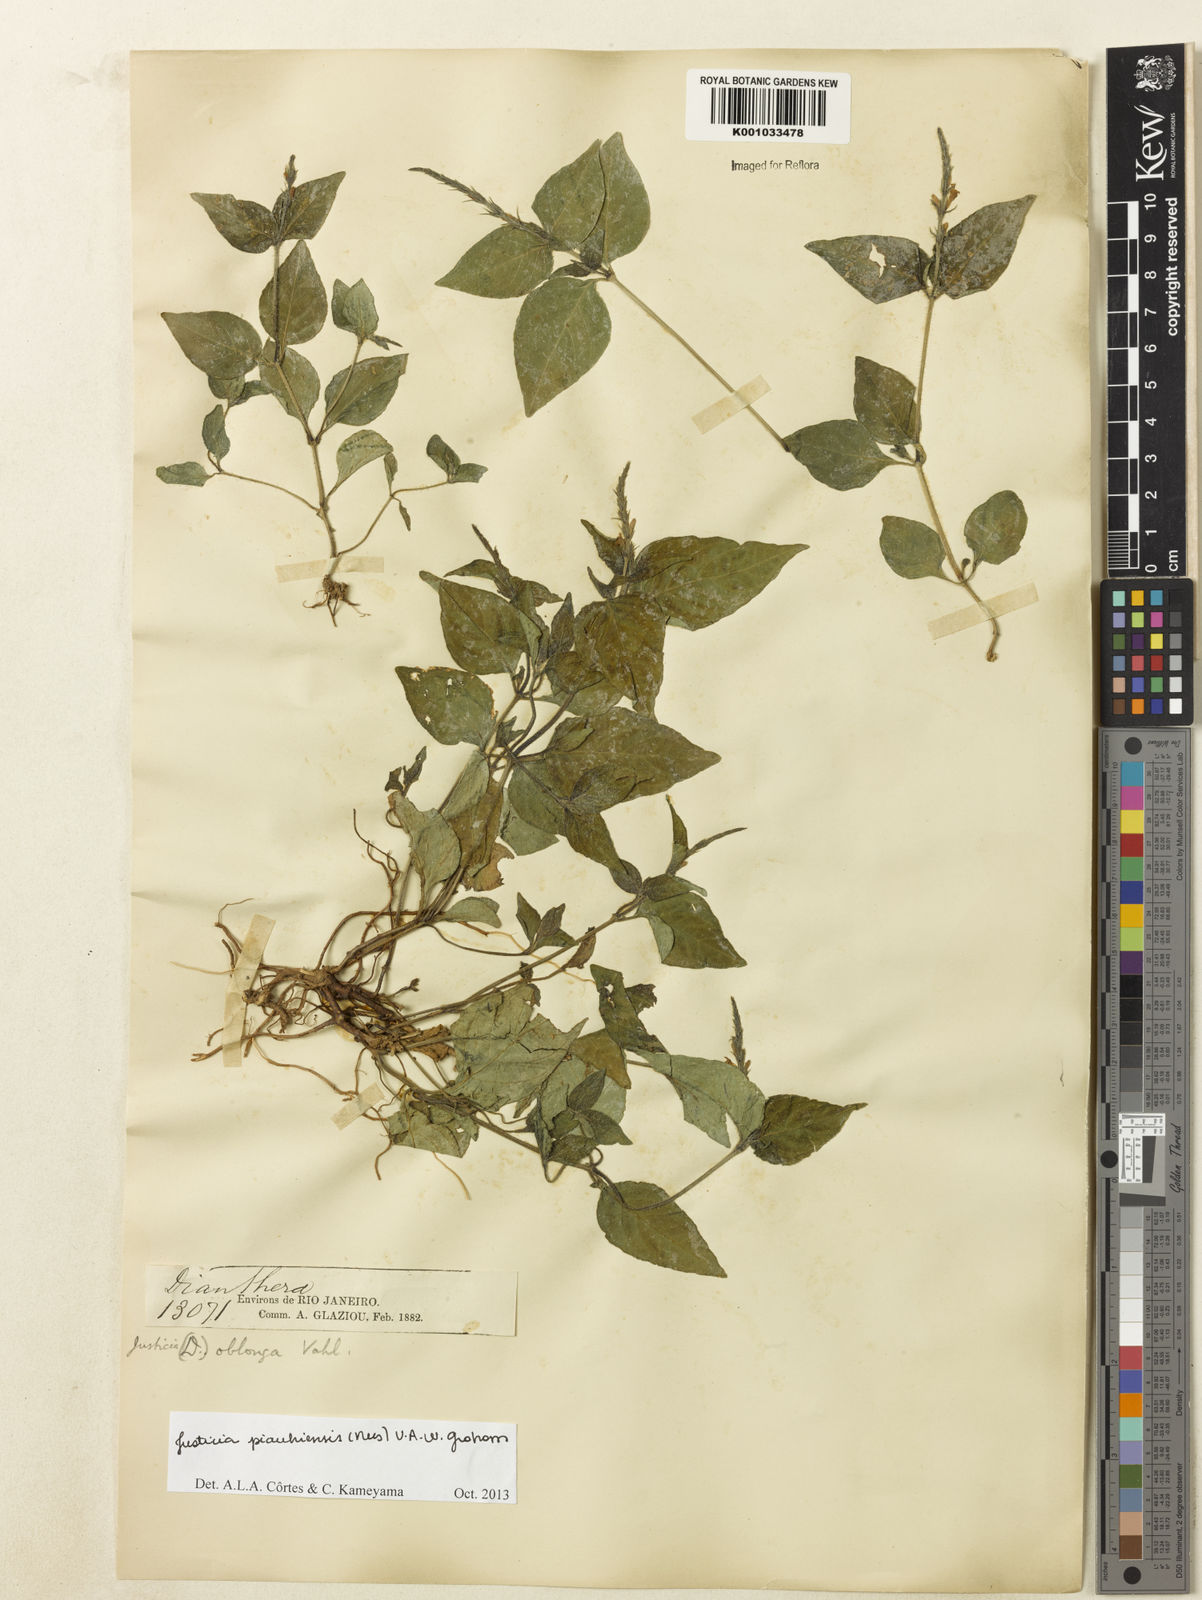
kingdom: Plantae
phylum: Tracheophyta
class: Magnoliopsida
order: Lamiales
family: Acanthaceae
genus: Justicia
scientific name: Justicia piauhiensis
